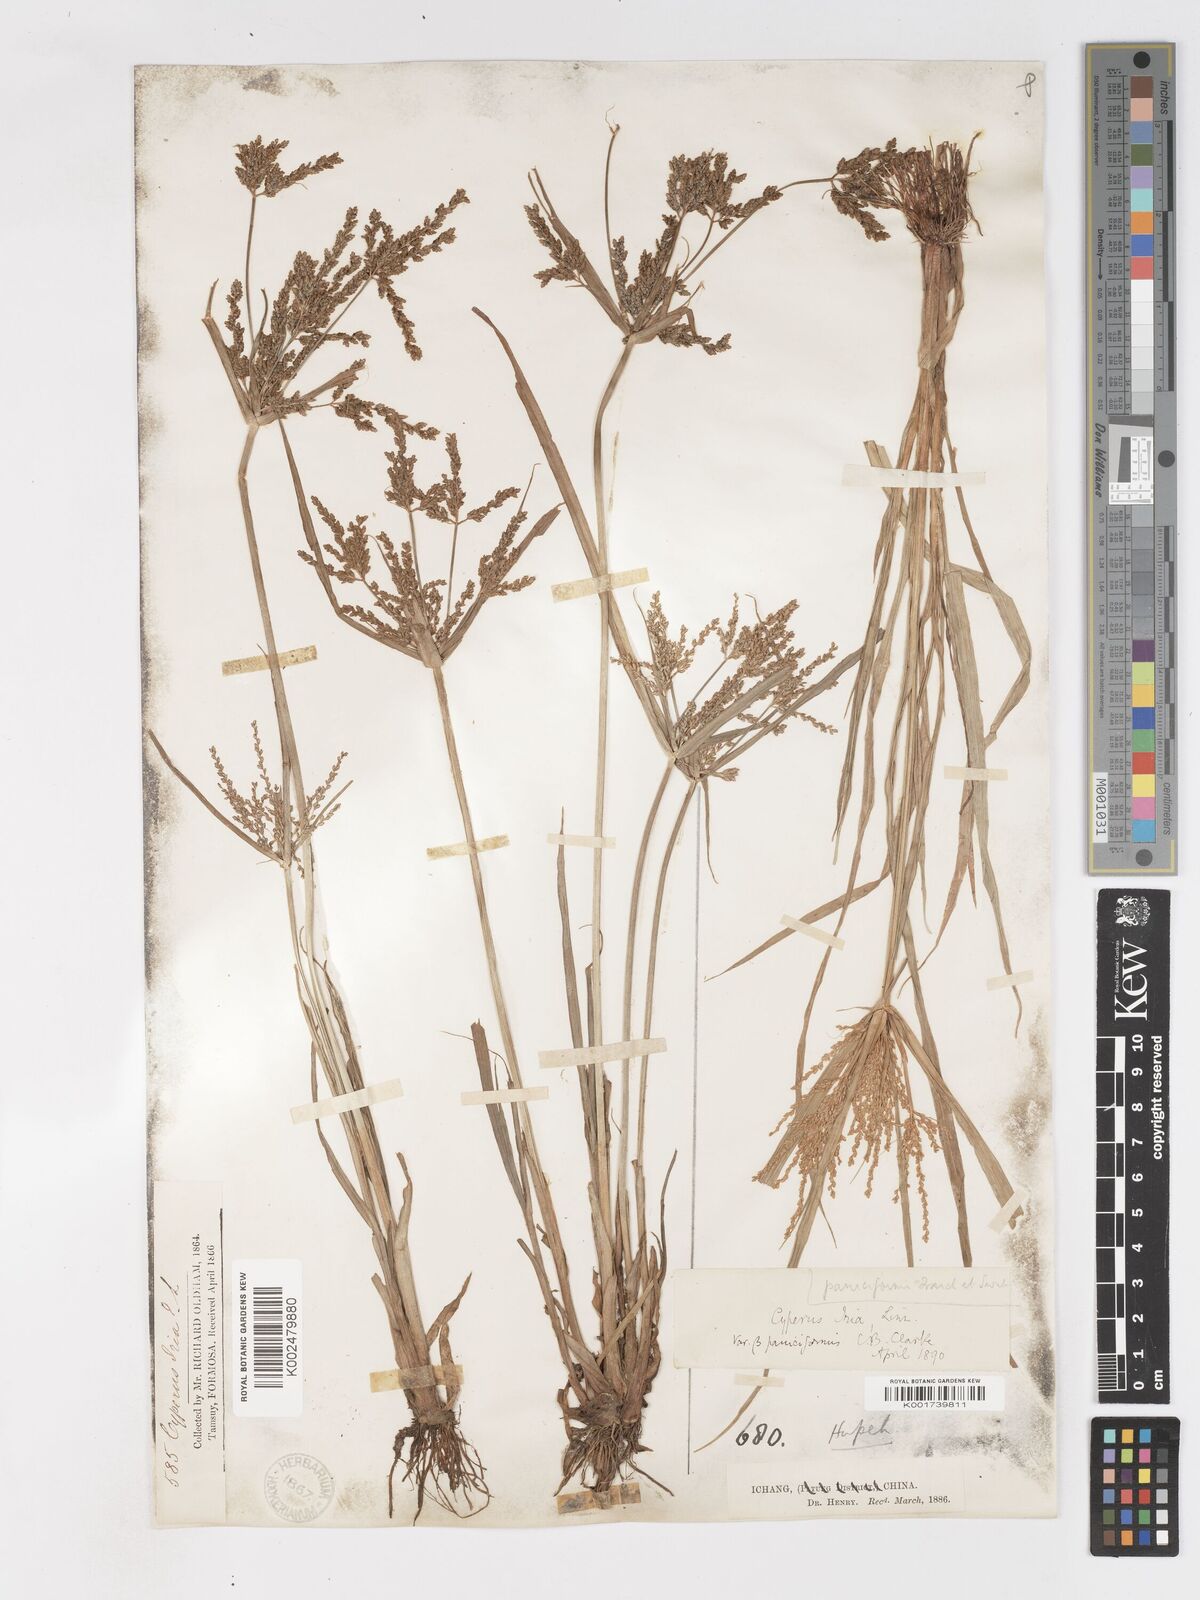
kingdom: Plantae
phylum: Tracheophyta
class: Liliopsida
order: Poales
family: Cyperaceae
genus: Cyperus
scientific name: Cyperus iria
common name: Ricefield flatsedge
